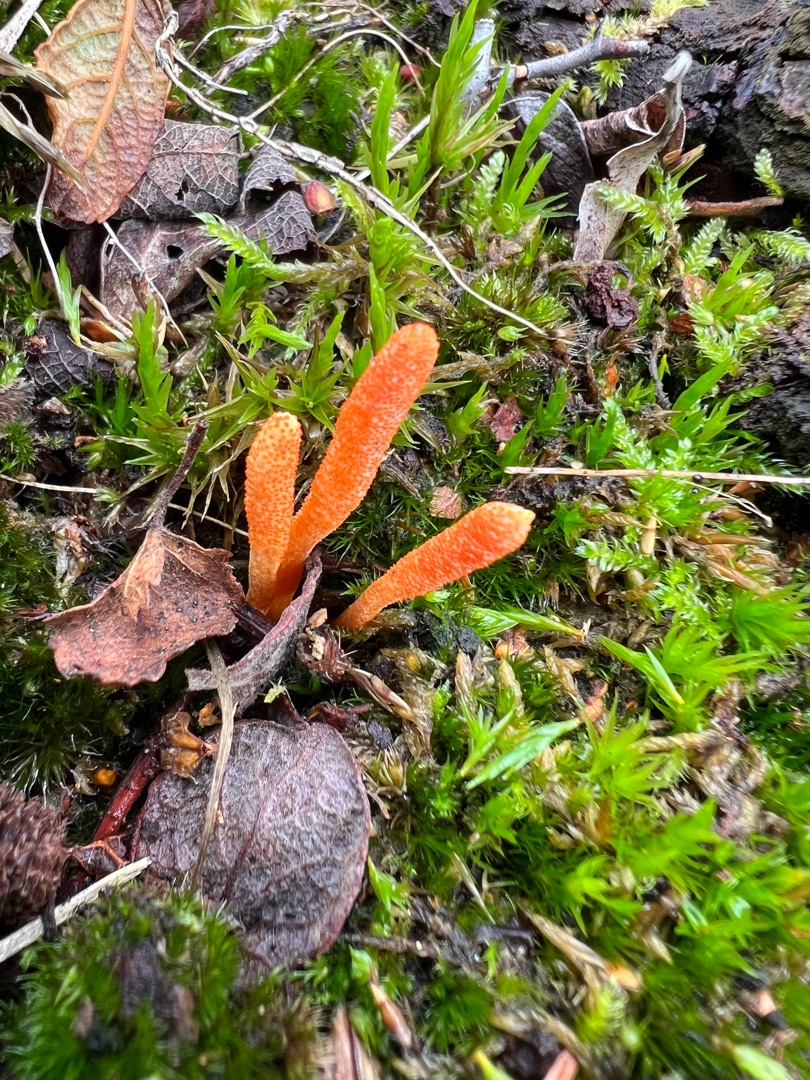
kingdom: Fungi
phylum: Ascomycota
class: Sordariomycetes
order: Hypocreales
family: Cordycipitaceae
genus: Cordyceps
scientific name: Cordyceps militaris
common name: Puppe-snyltekølle
